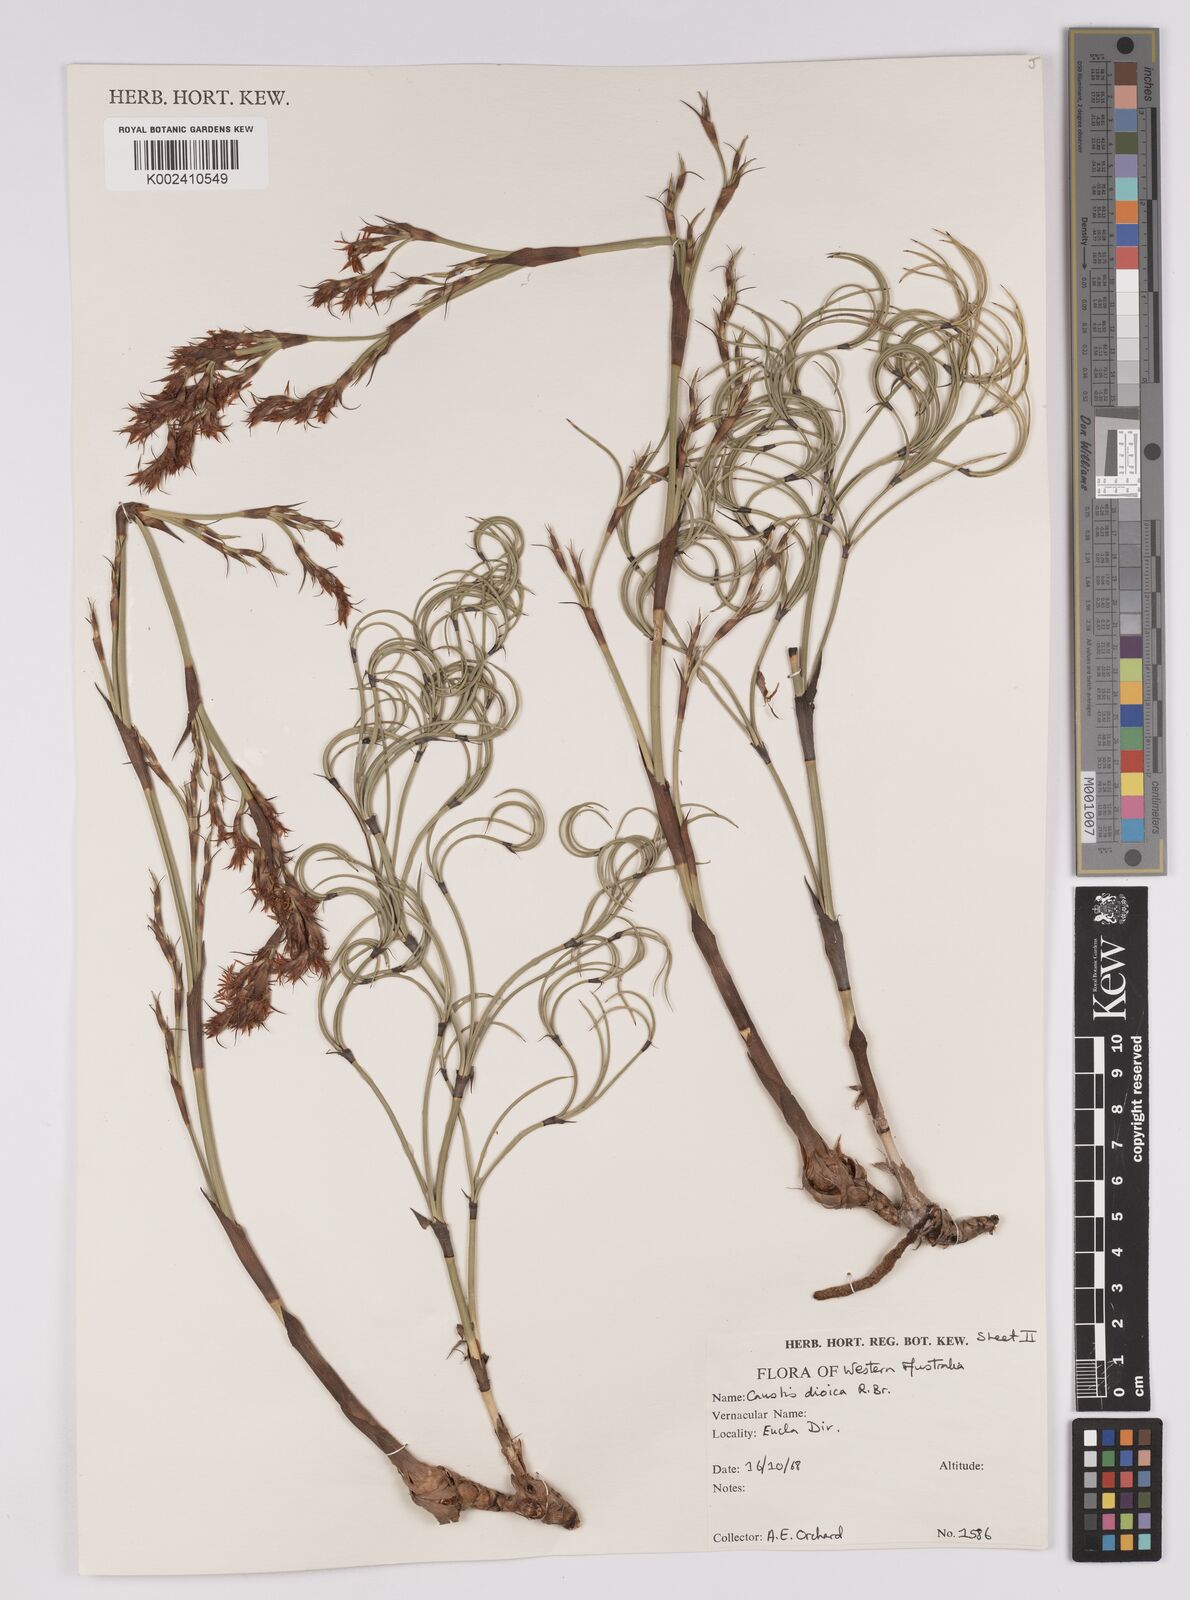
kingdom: Plantae
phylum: Tracheophyta
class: Liliopsida
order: Poales
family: Cyperaceae
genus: Caustis
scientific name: Caustis dioica
